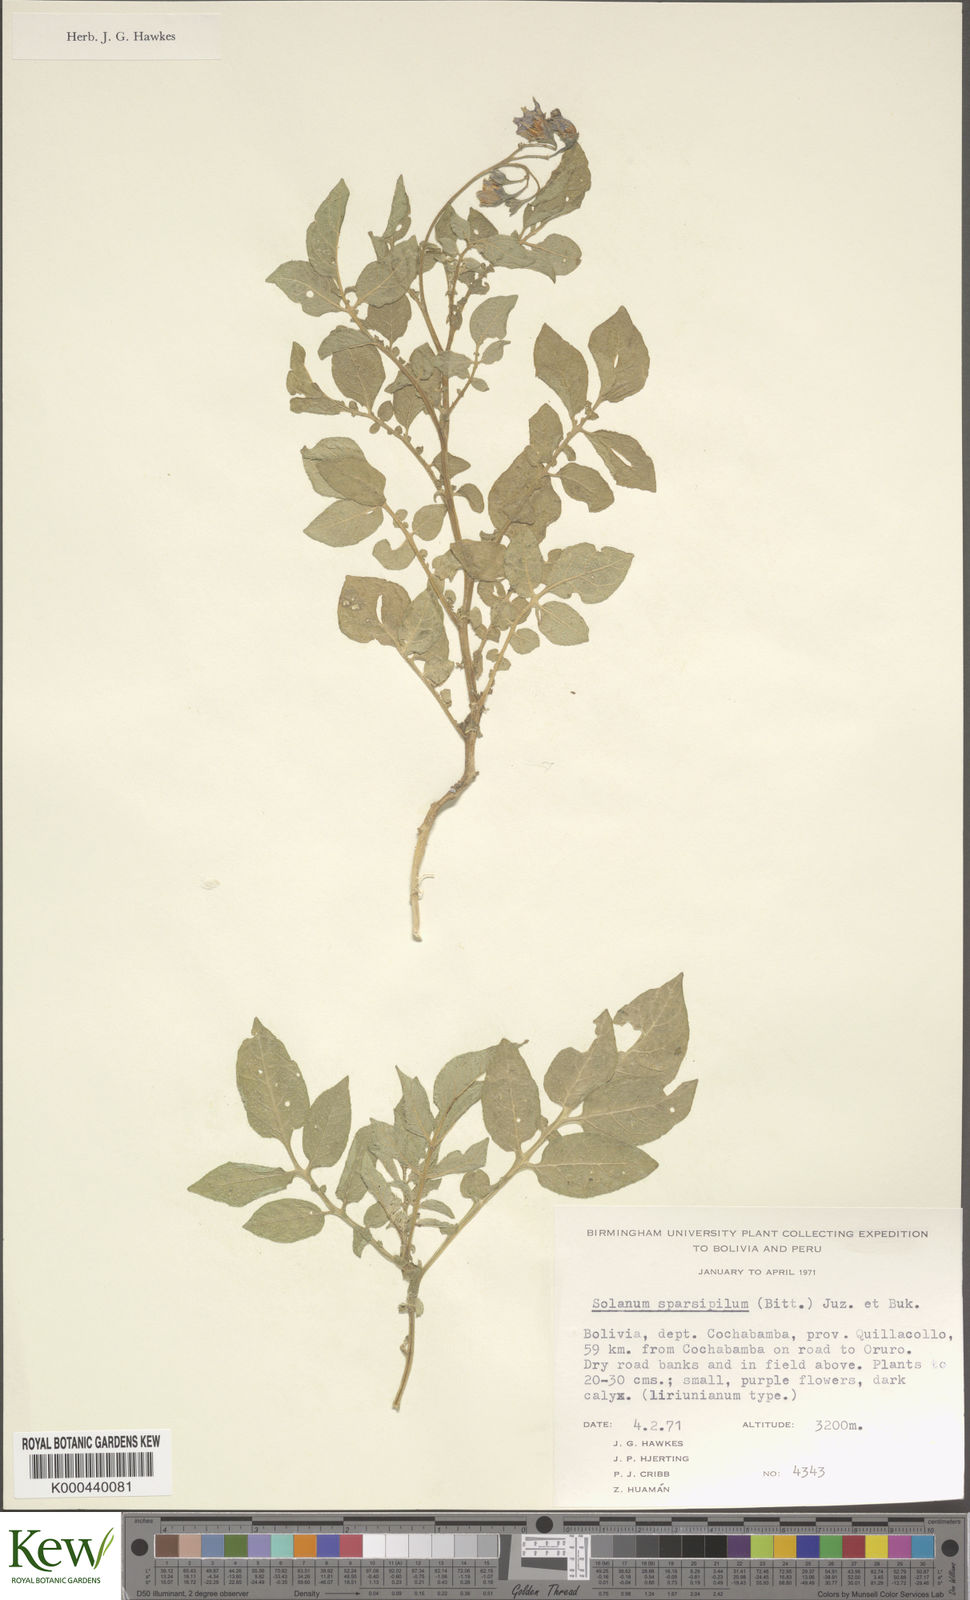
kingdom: Plantae
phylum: Tracheophyta
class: Magnoliopsida
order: Solanales
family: Solanaceae
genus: Solanum
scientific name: Solanum brevicaule
